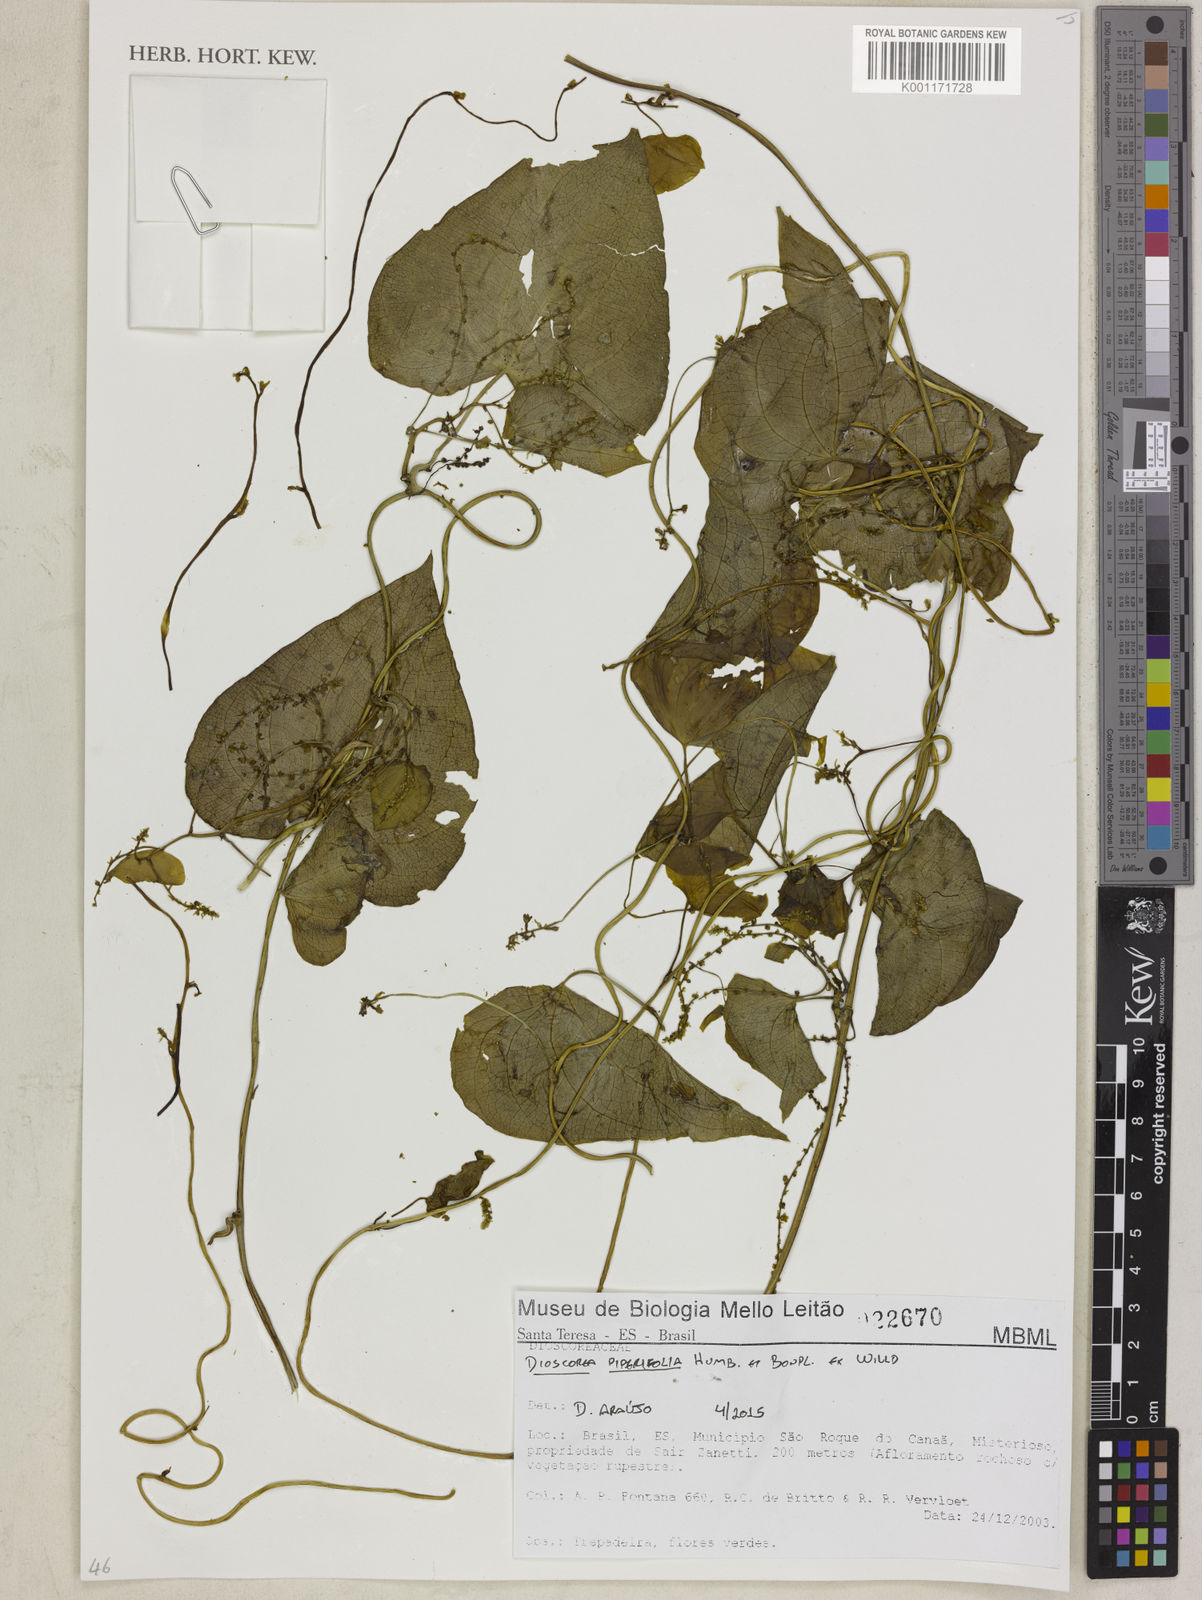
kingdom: Plantae
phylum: Tracheophyta
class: Liliopsida
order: Dioscoreales
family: Dioscoreaceae
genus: Dioscorea
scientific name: Dioscorea piperifolia
